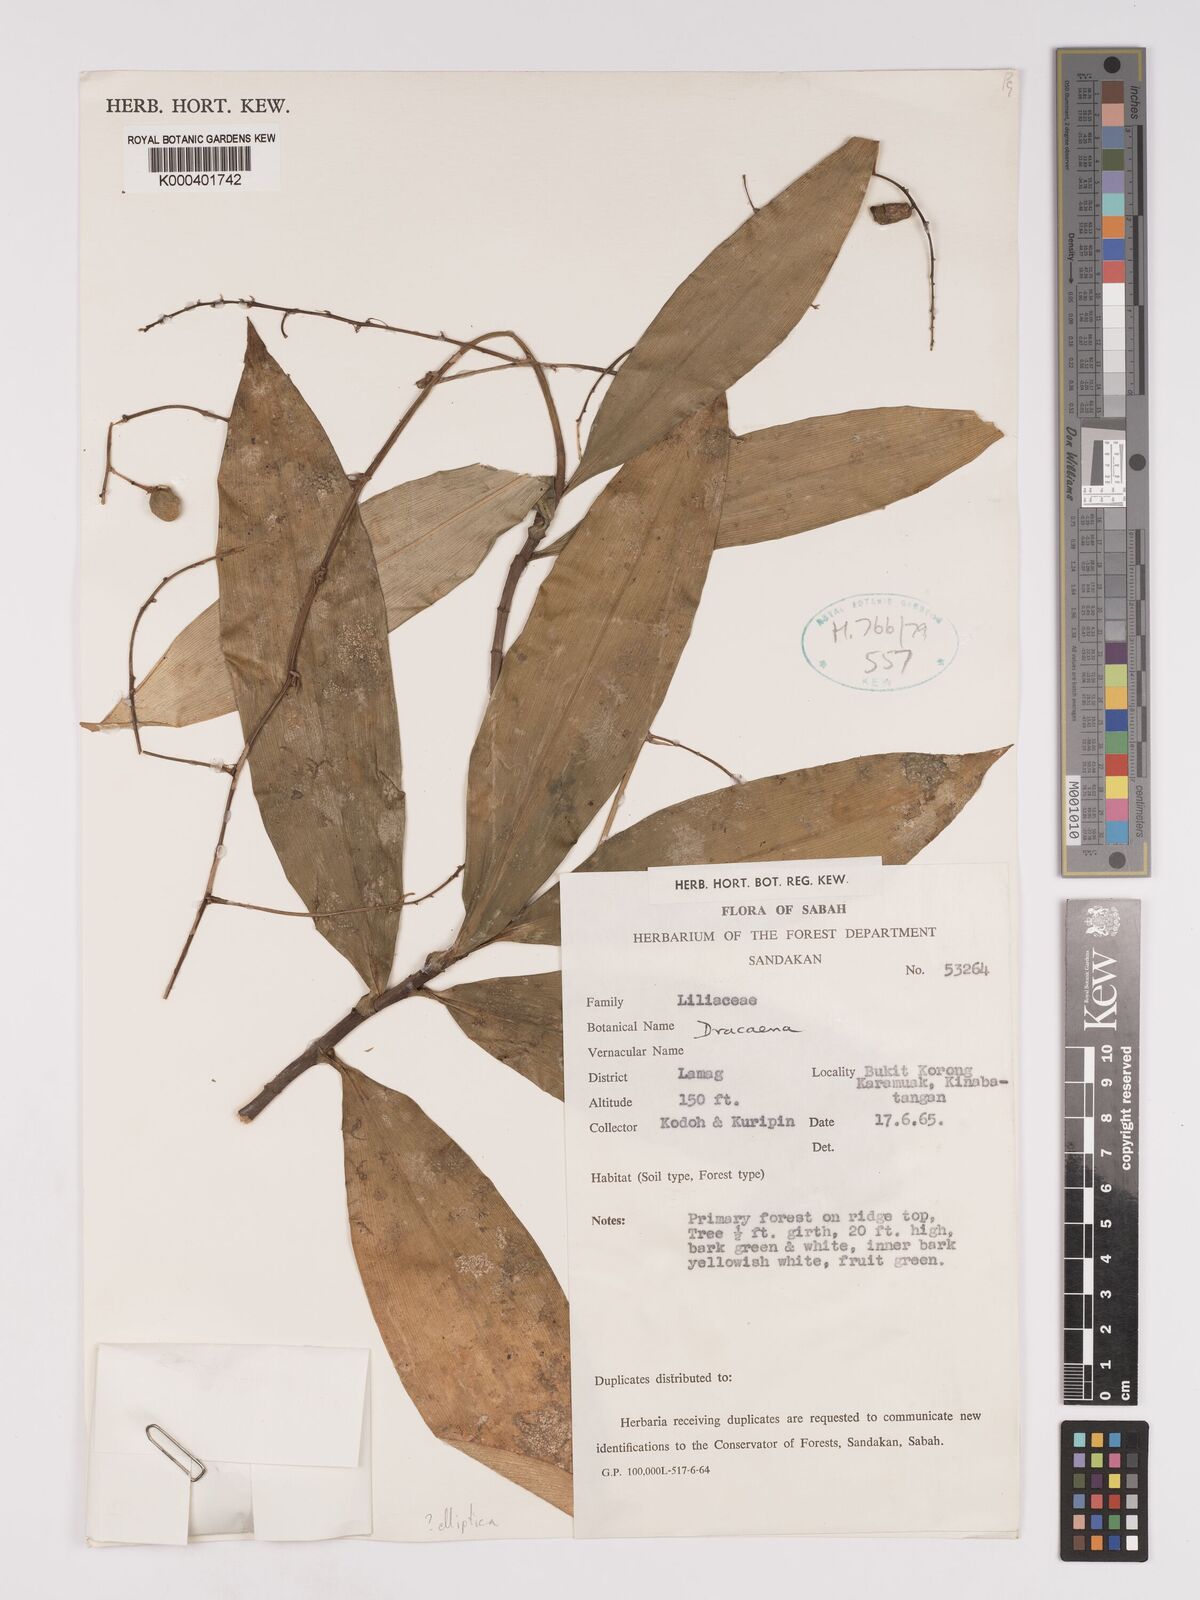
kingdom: Plantae
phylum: Tracheophyta
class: Liliopsida
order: Asparagales
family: Asparagaceae
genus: Dracaena
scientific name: Dracaena elliptica
